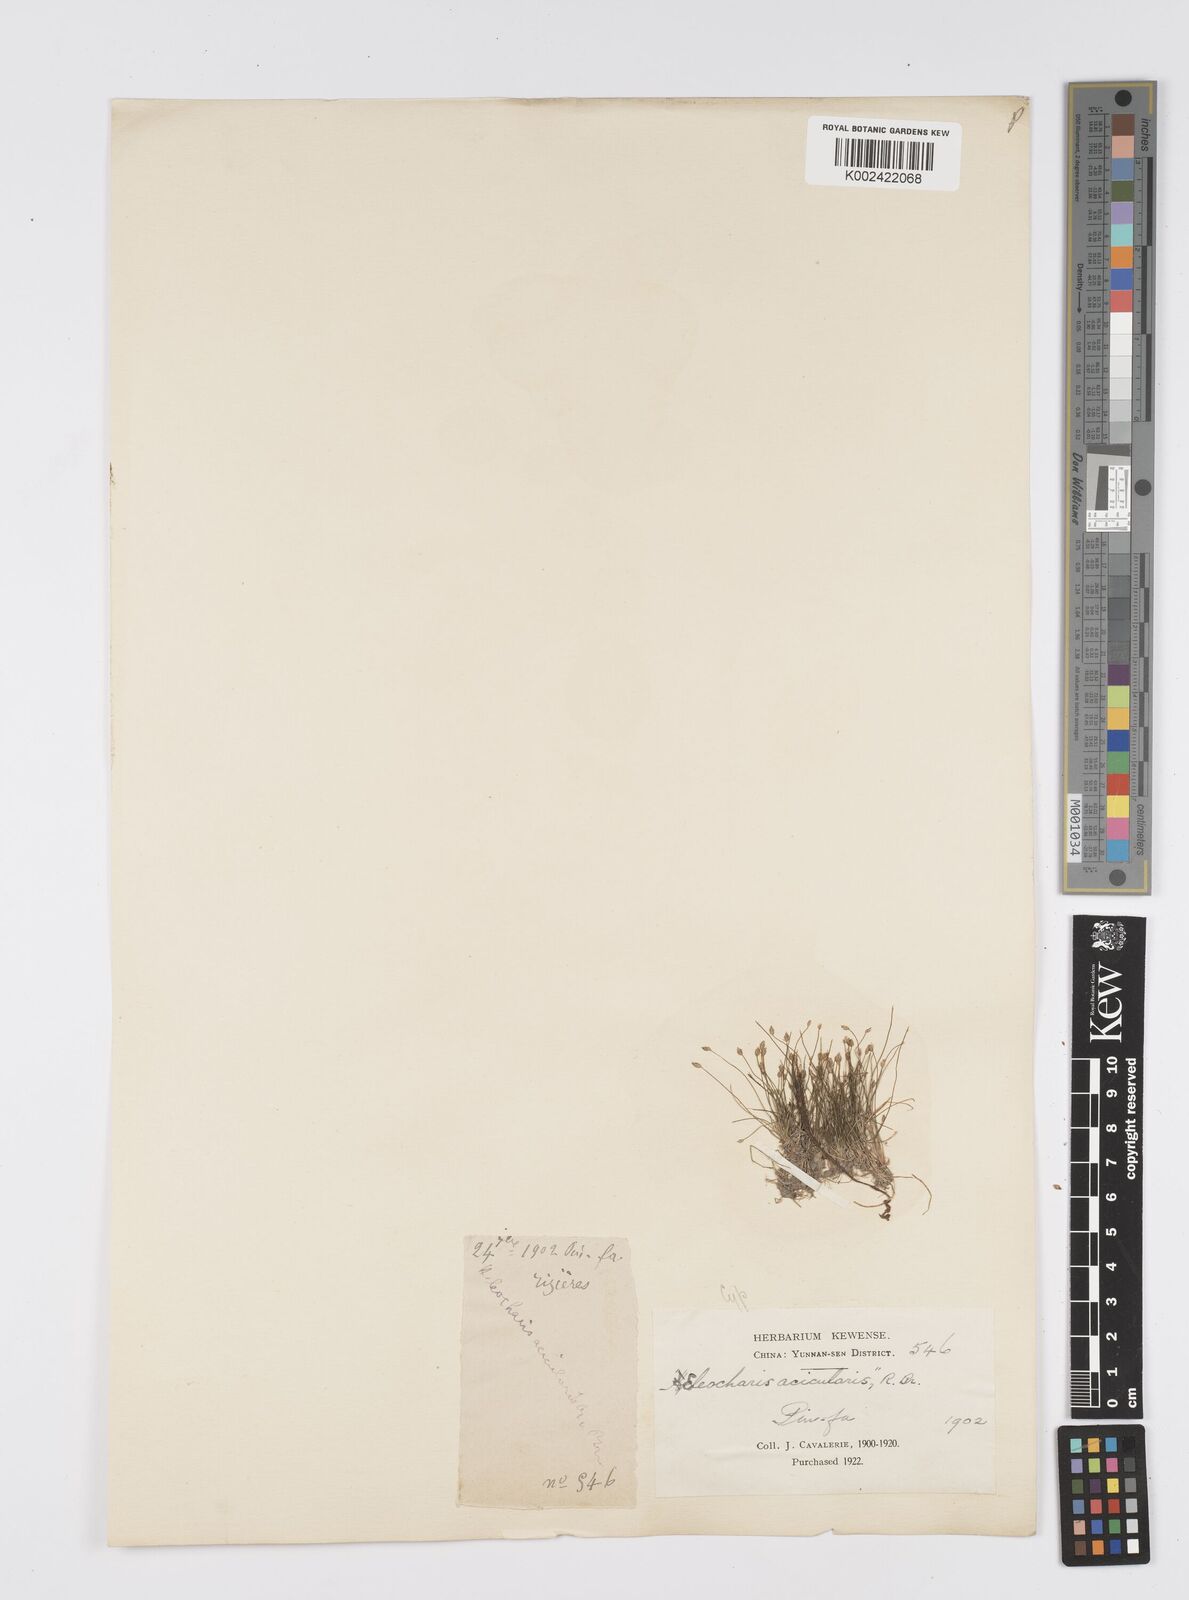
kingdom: Plantae
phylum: Tracheophyta
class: Liliopsida
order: Poales
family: Cyperaceae
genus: Eleocharis
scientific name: Eleocharis acicularis
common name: Needle spike-rush
